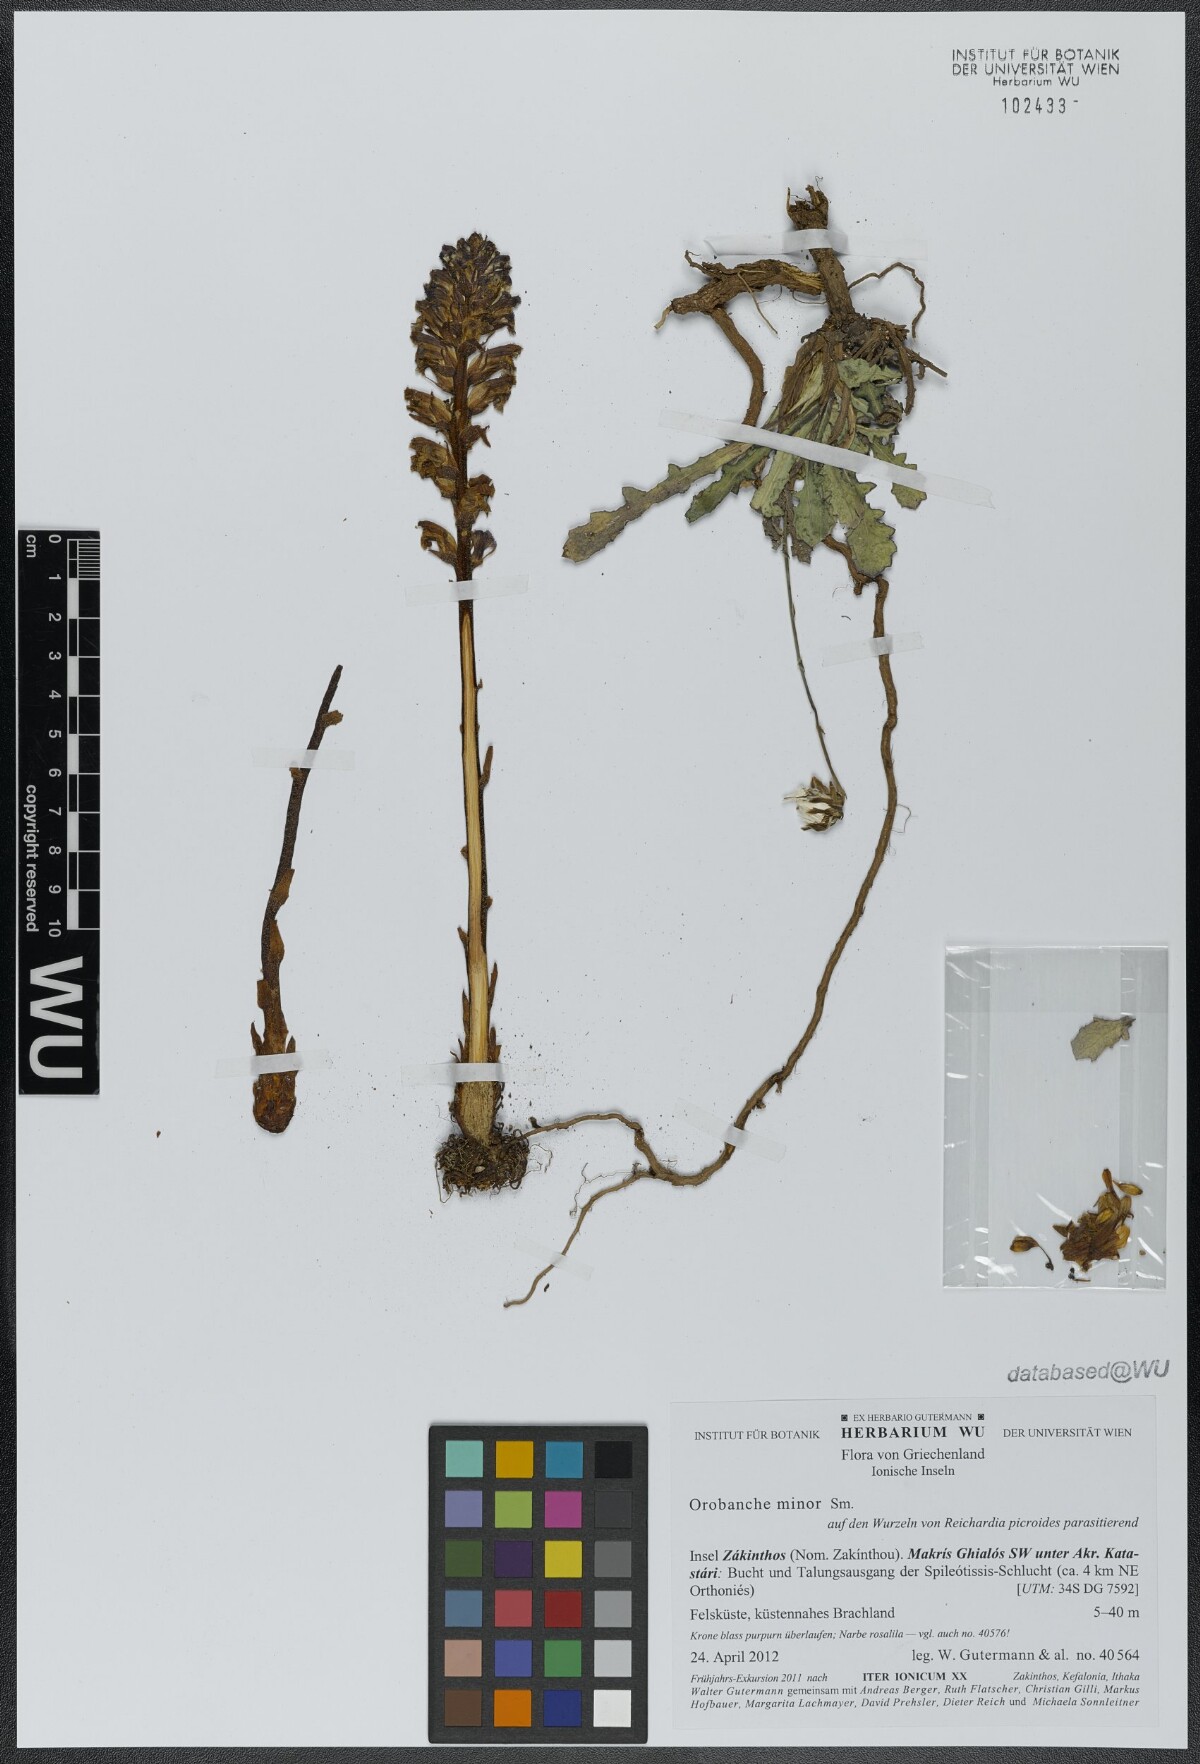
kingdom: Plantae
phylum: Tracheophyta
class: Magnoliopsida
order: Lamiales
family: Orobanchaceae
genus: Orobanche
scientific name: Orobanche grisebachii
